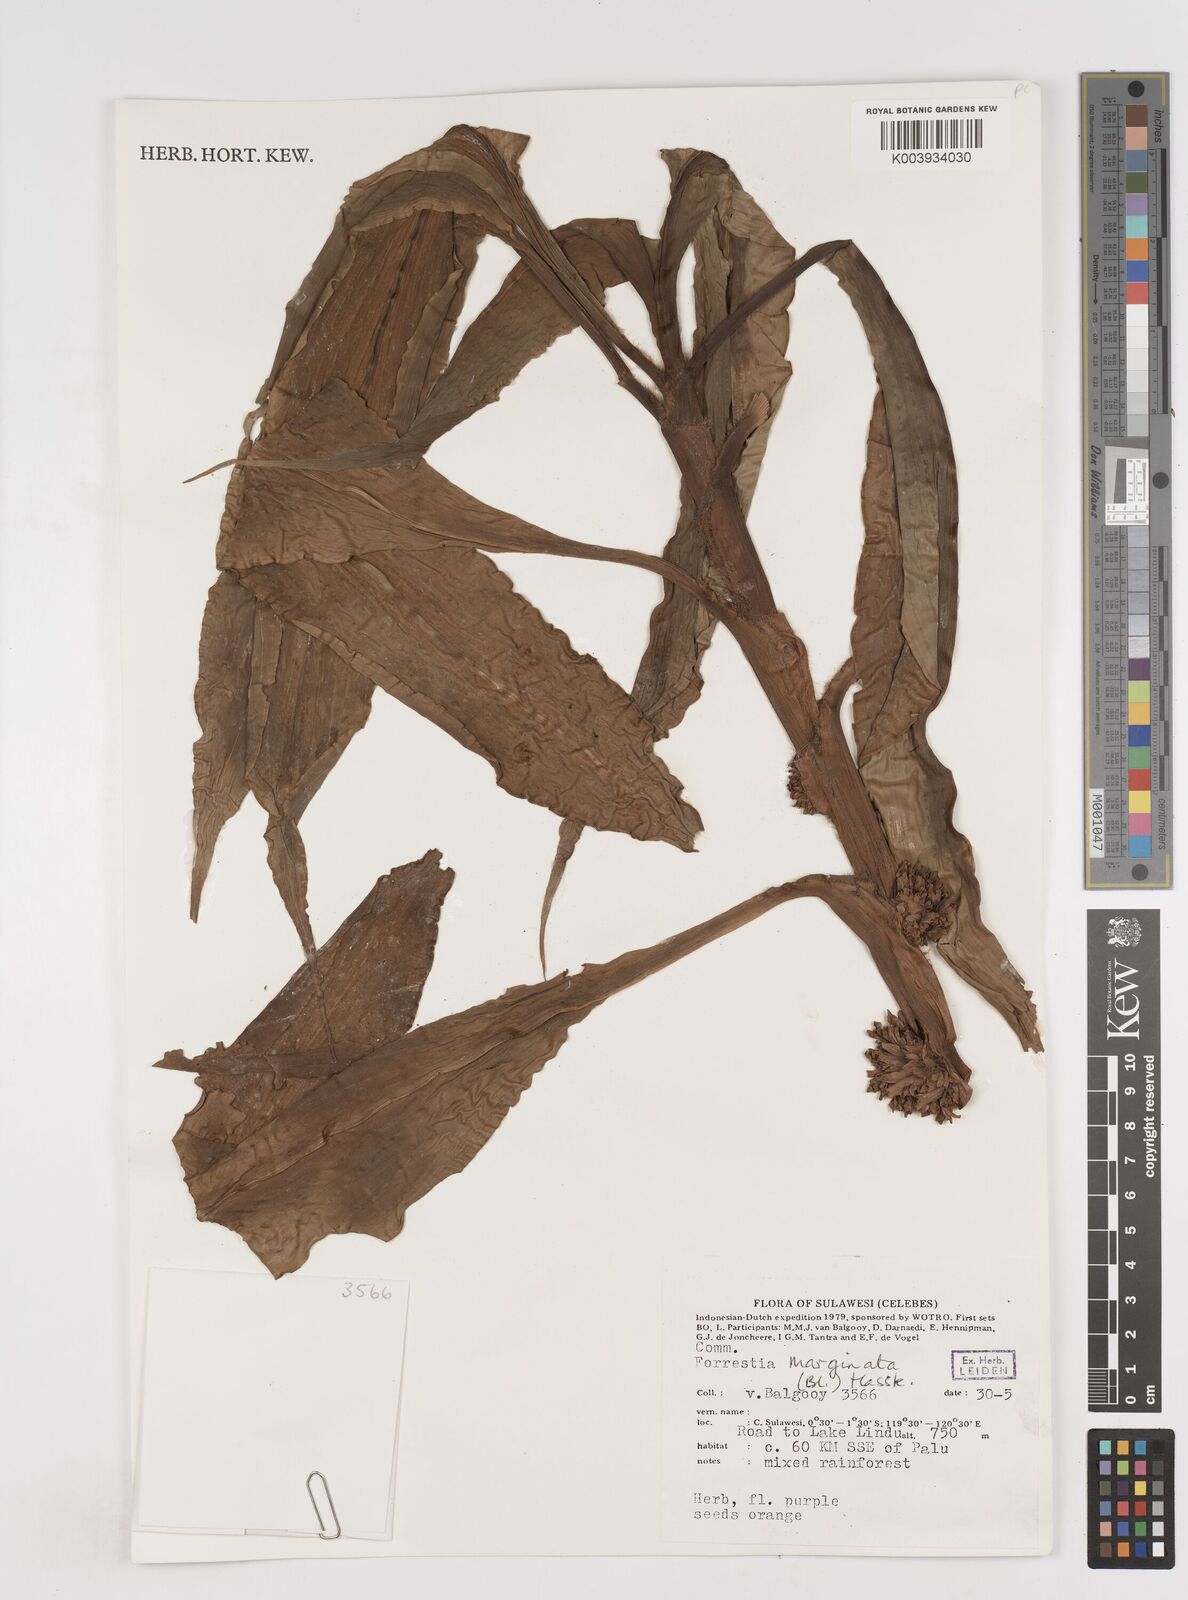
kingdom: Plantae
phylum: Tracheophyta
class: Liliopsida
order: Commelinales
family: Commelinaceae
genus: Amischotolype
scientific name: Amischotolype marginata
